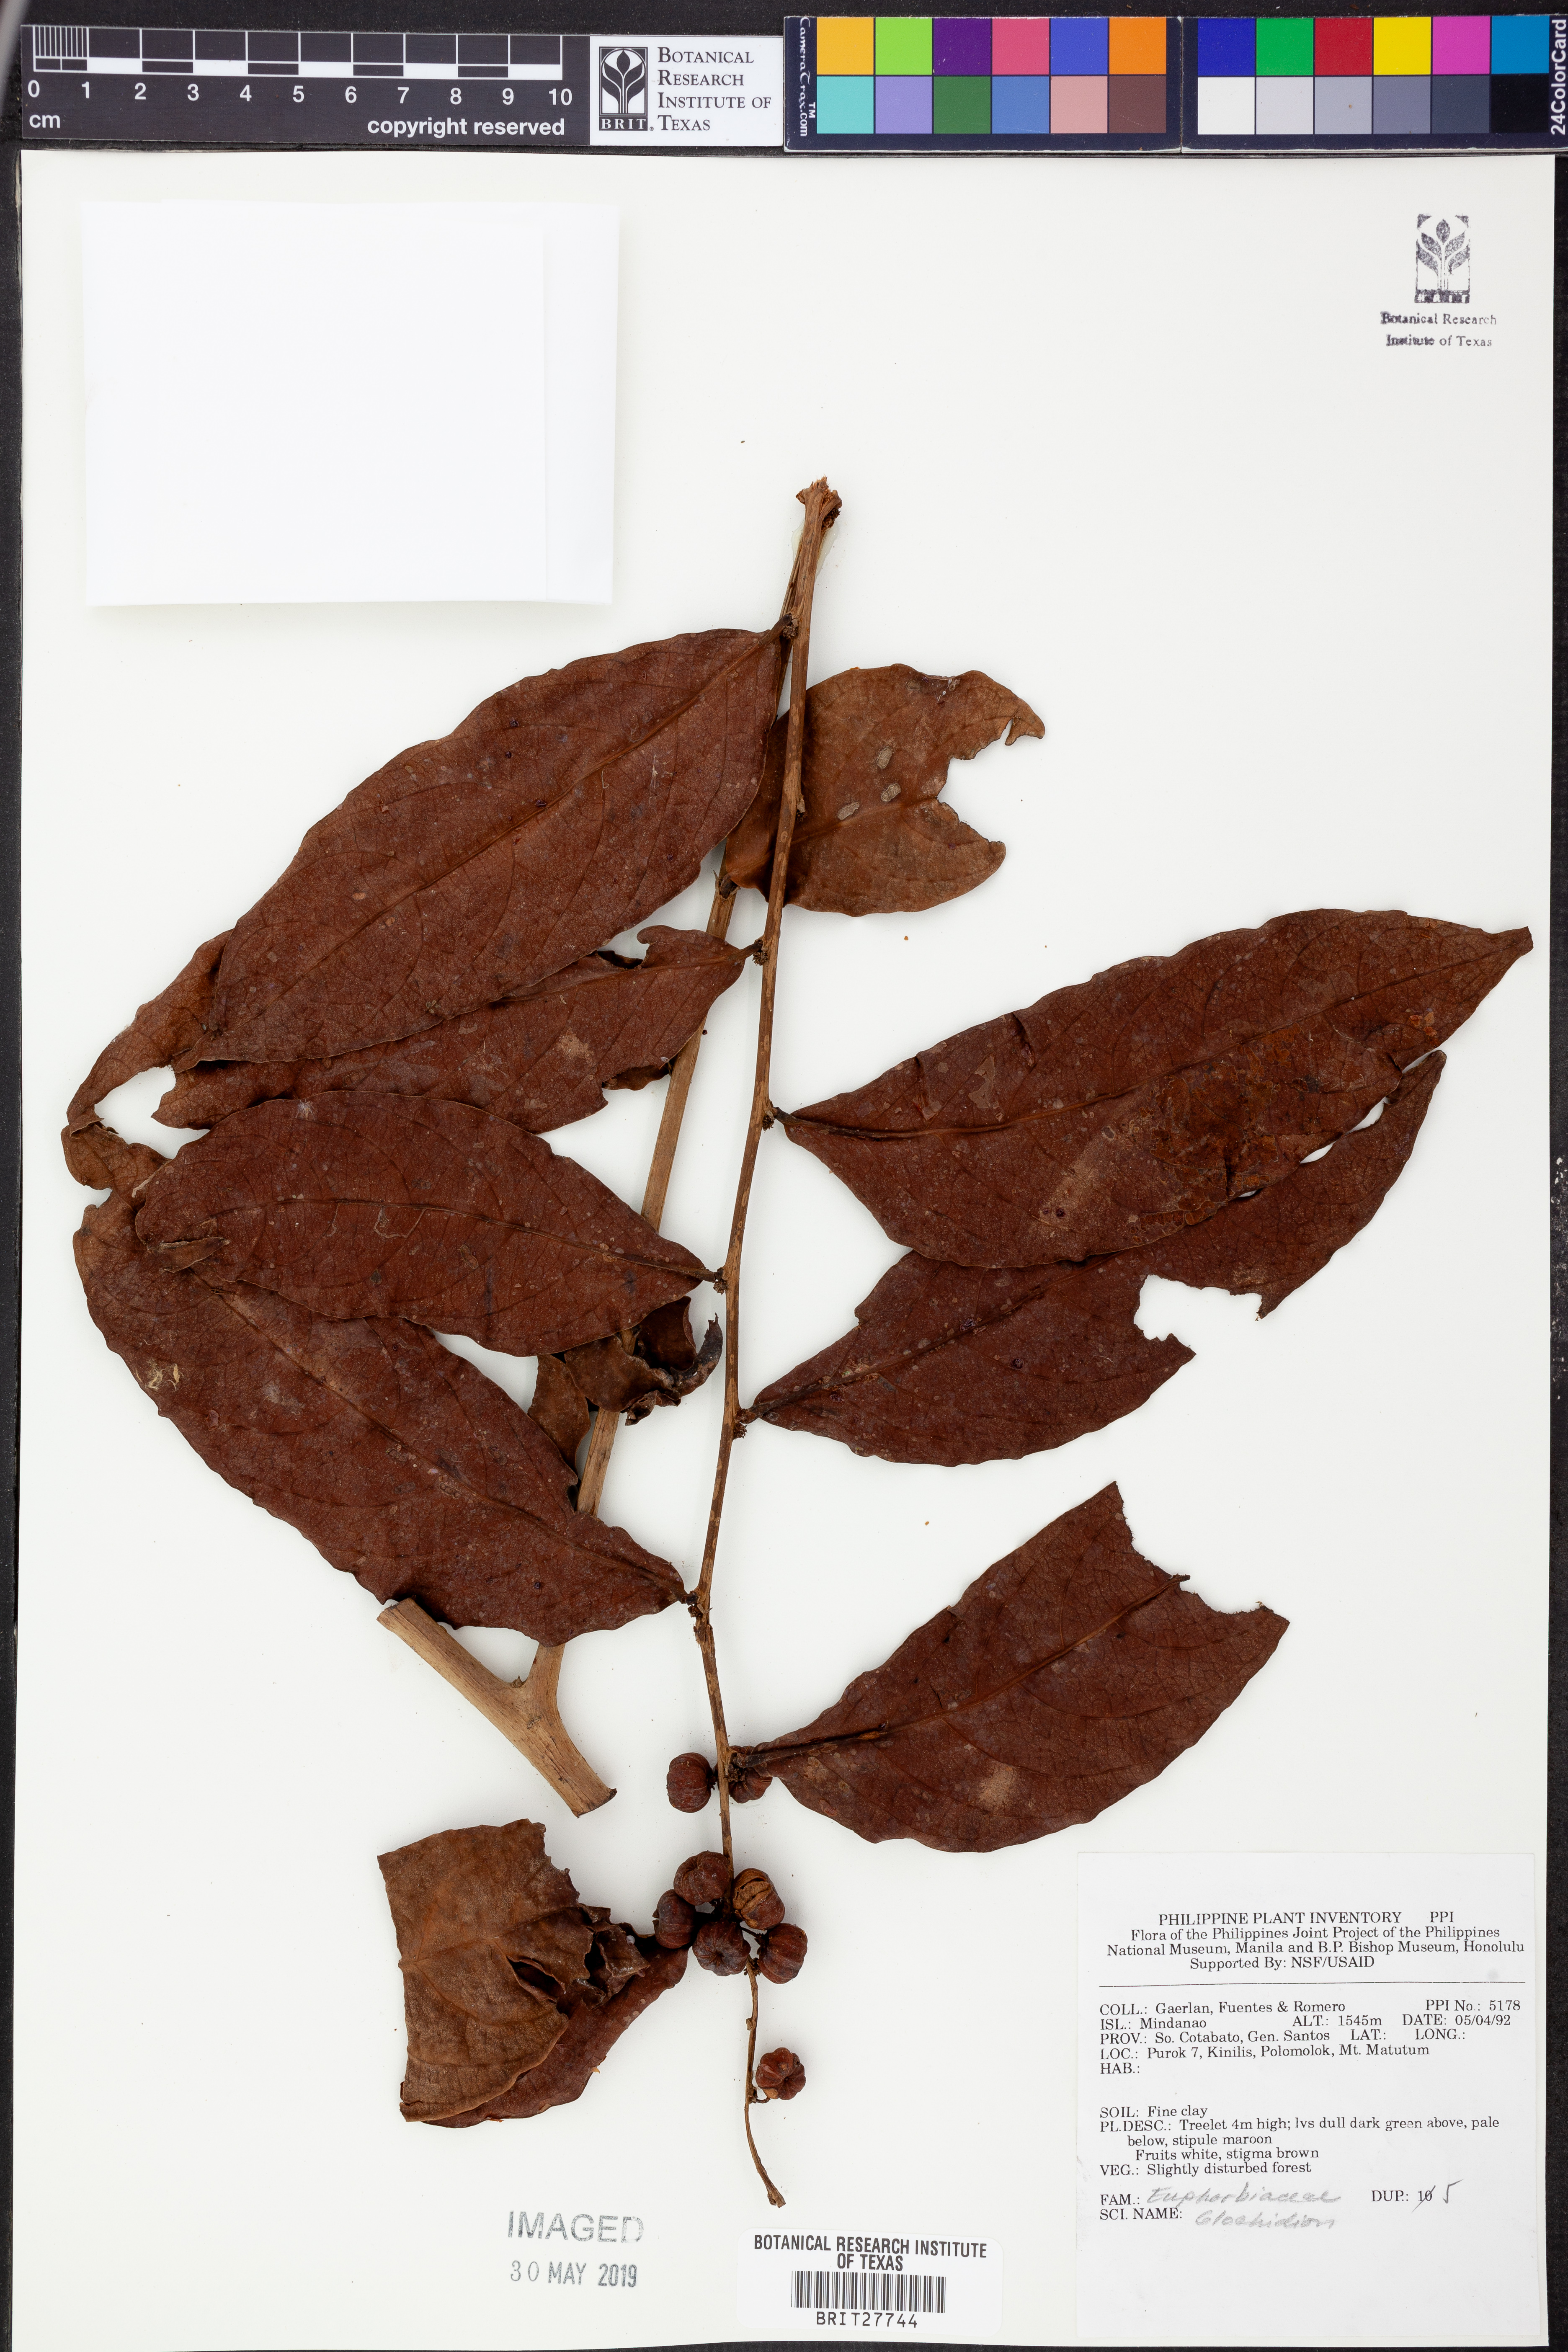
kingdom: Plantae
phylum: Tracheophyta
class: Magnoliopsida
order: Malpighiales
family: Phyllanthaceae
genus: Glochidion
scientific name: Glochidion
